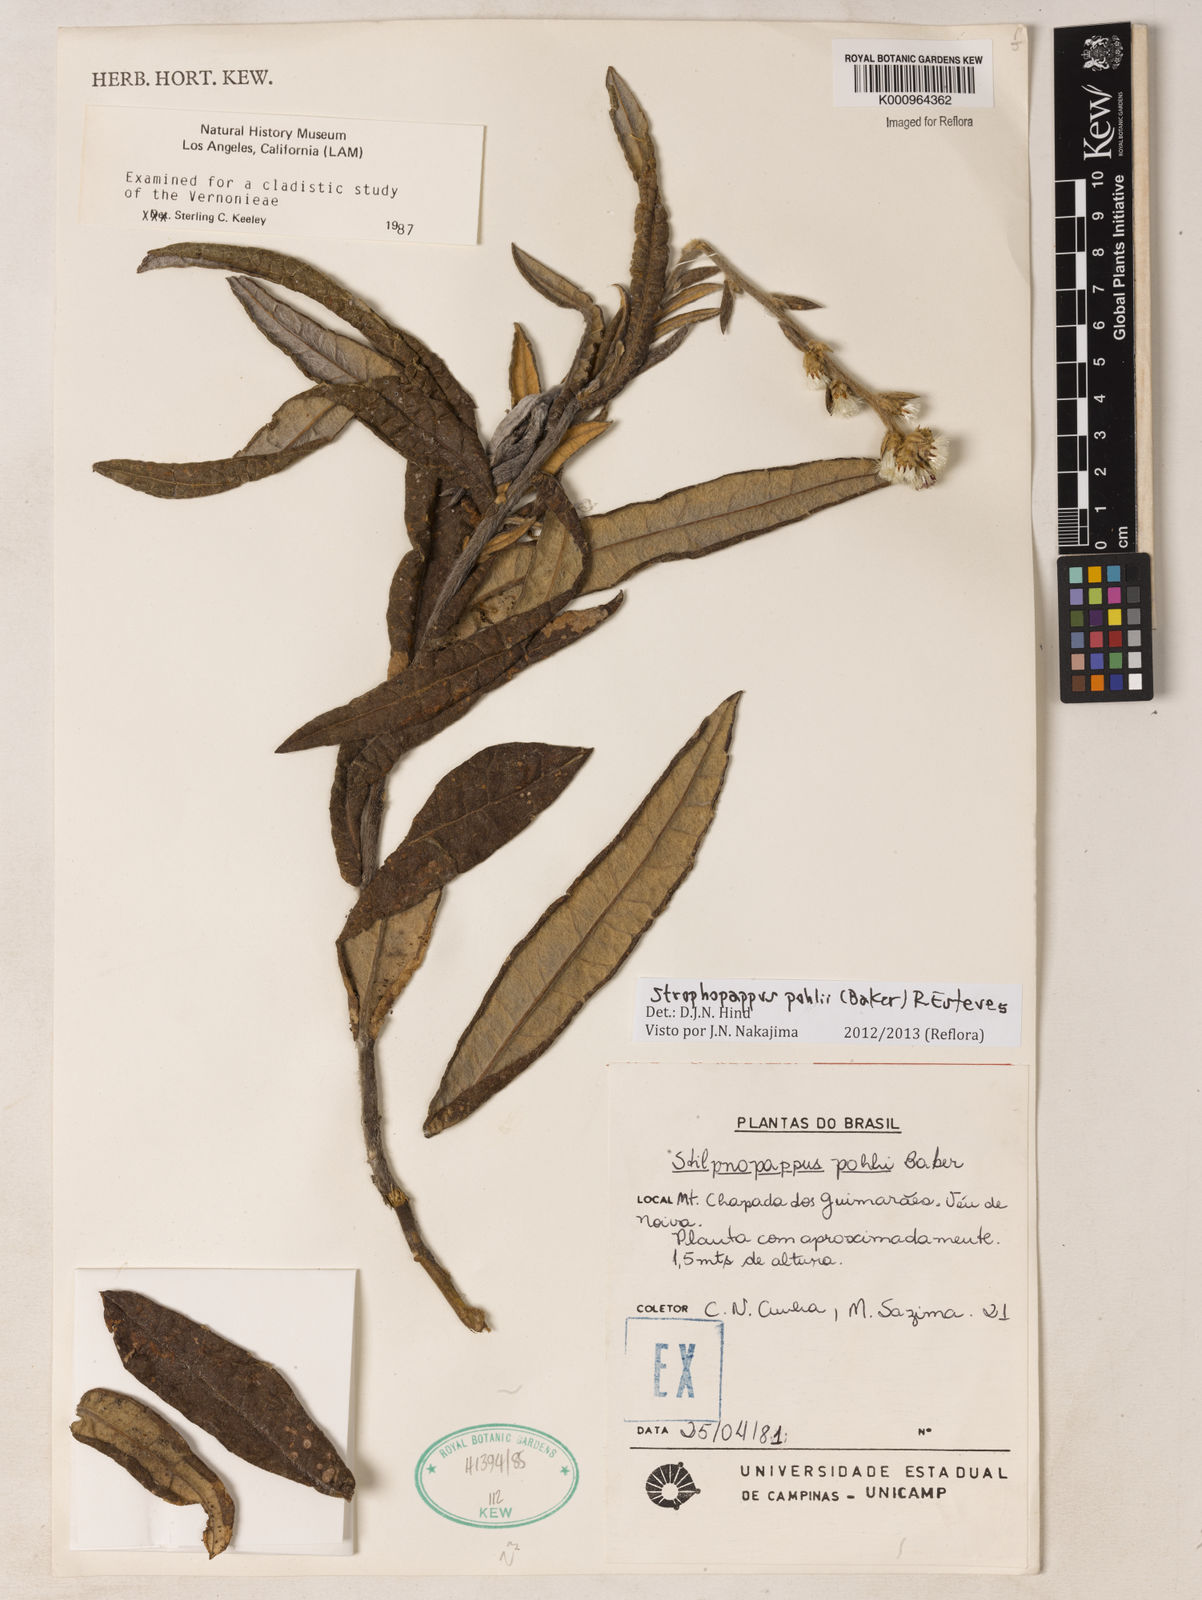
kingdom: Plantae
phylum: Tracheophyta
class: Magnoliopsida
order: Asterales
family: Asteraceae
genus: Stilpnopappus
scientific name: Stilpnopappus pohlii
